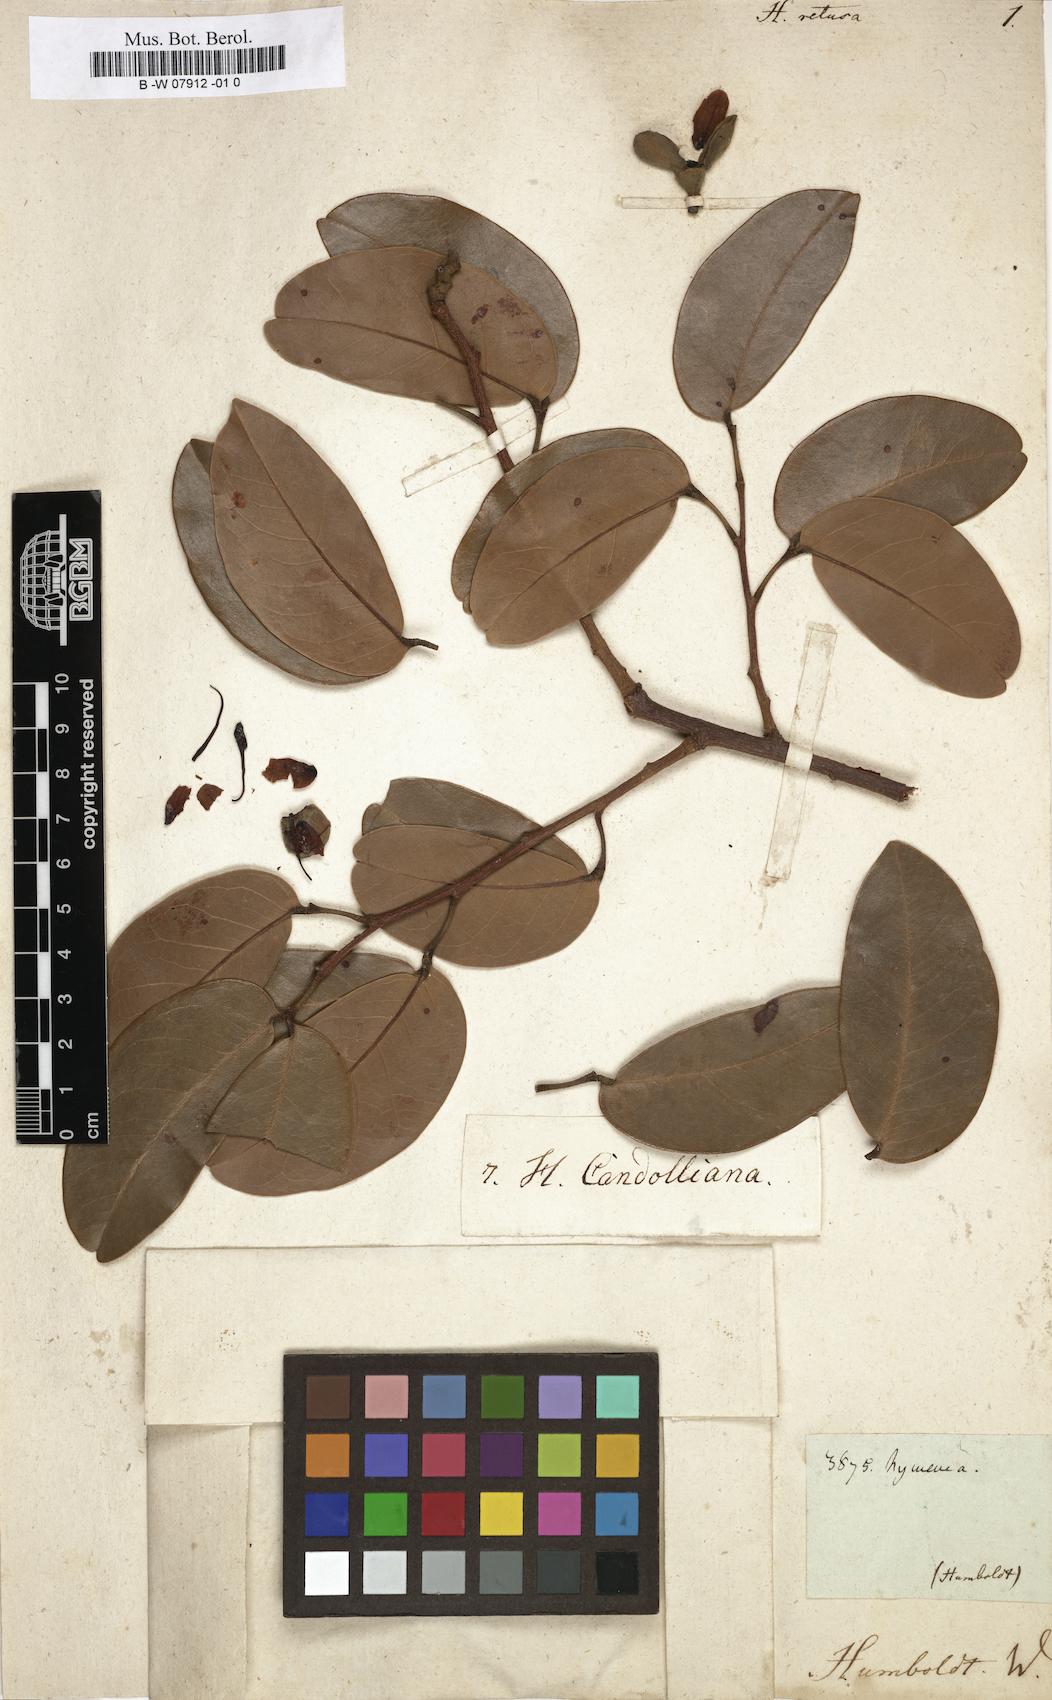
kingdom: Plantae
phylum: Tracheophyta
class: Magnoliopsida
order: Fabales
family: Fabaceae
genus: Hymenaea
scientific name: Hymenaea courbaril
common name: Brazilian copal
